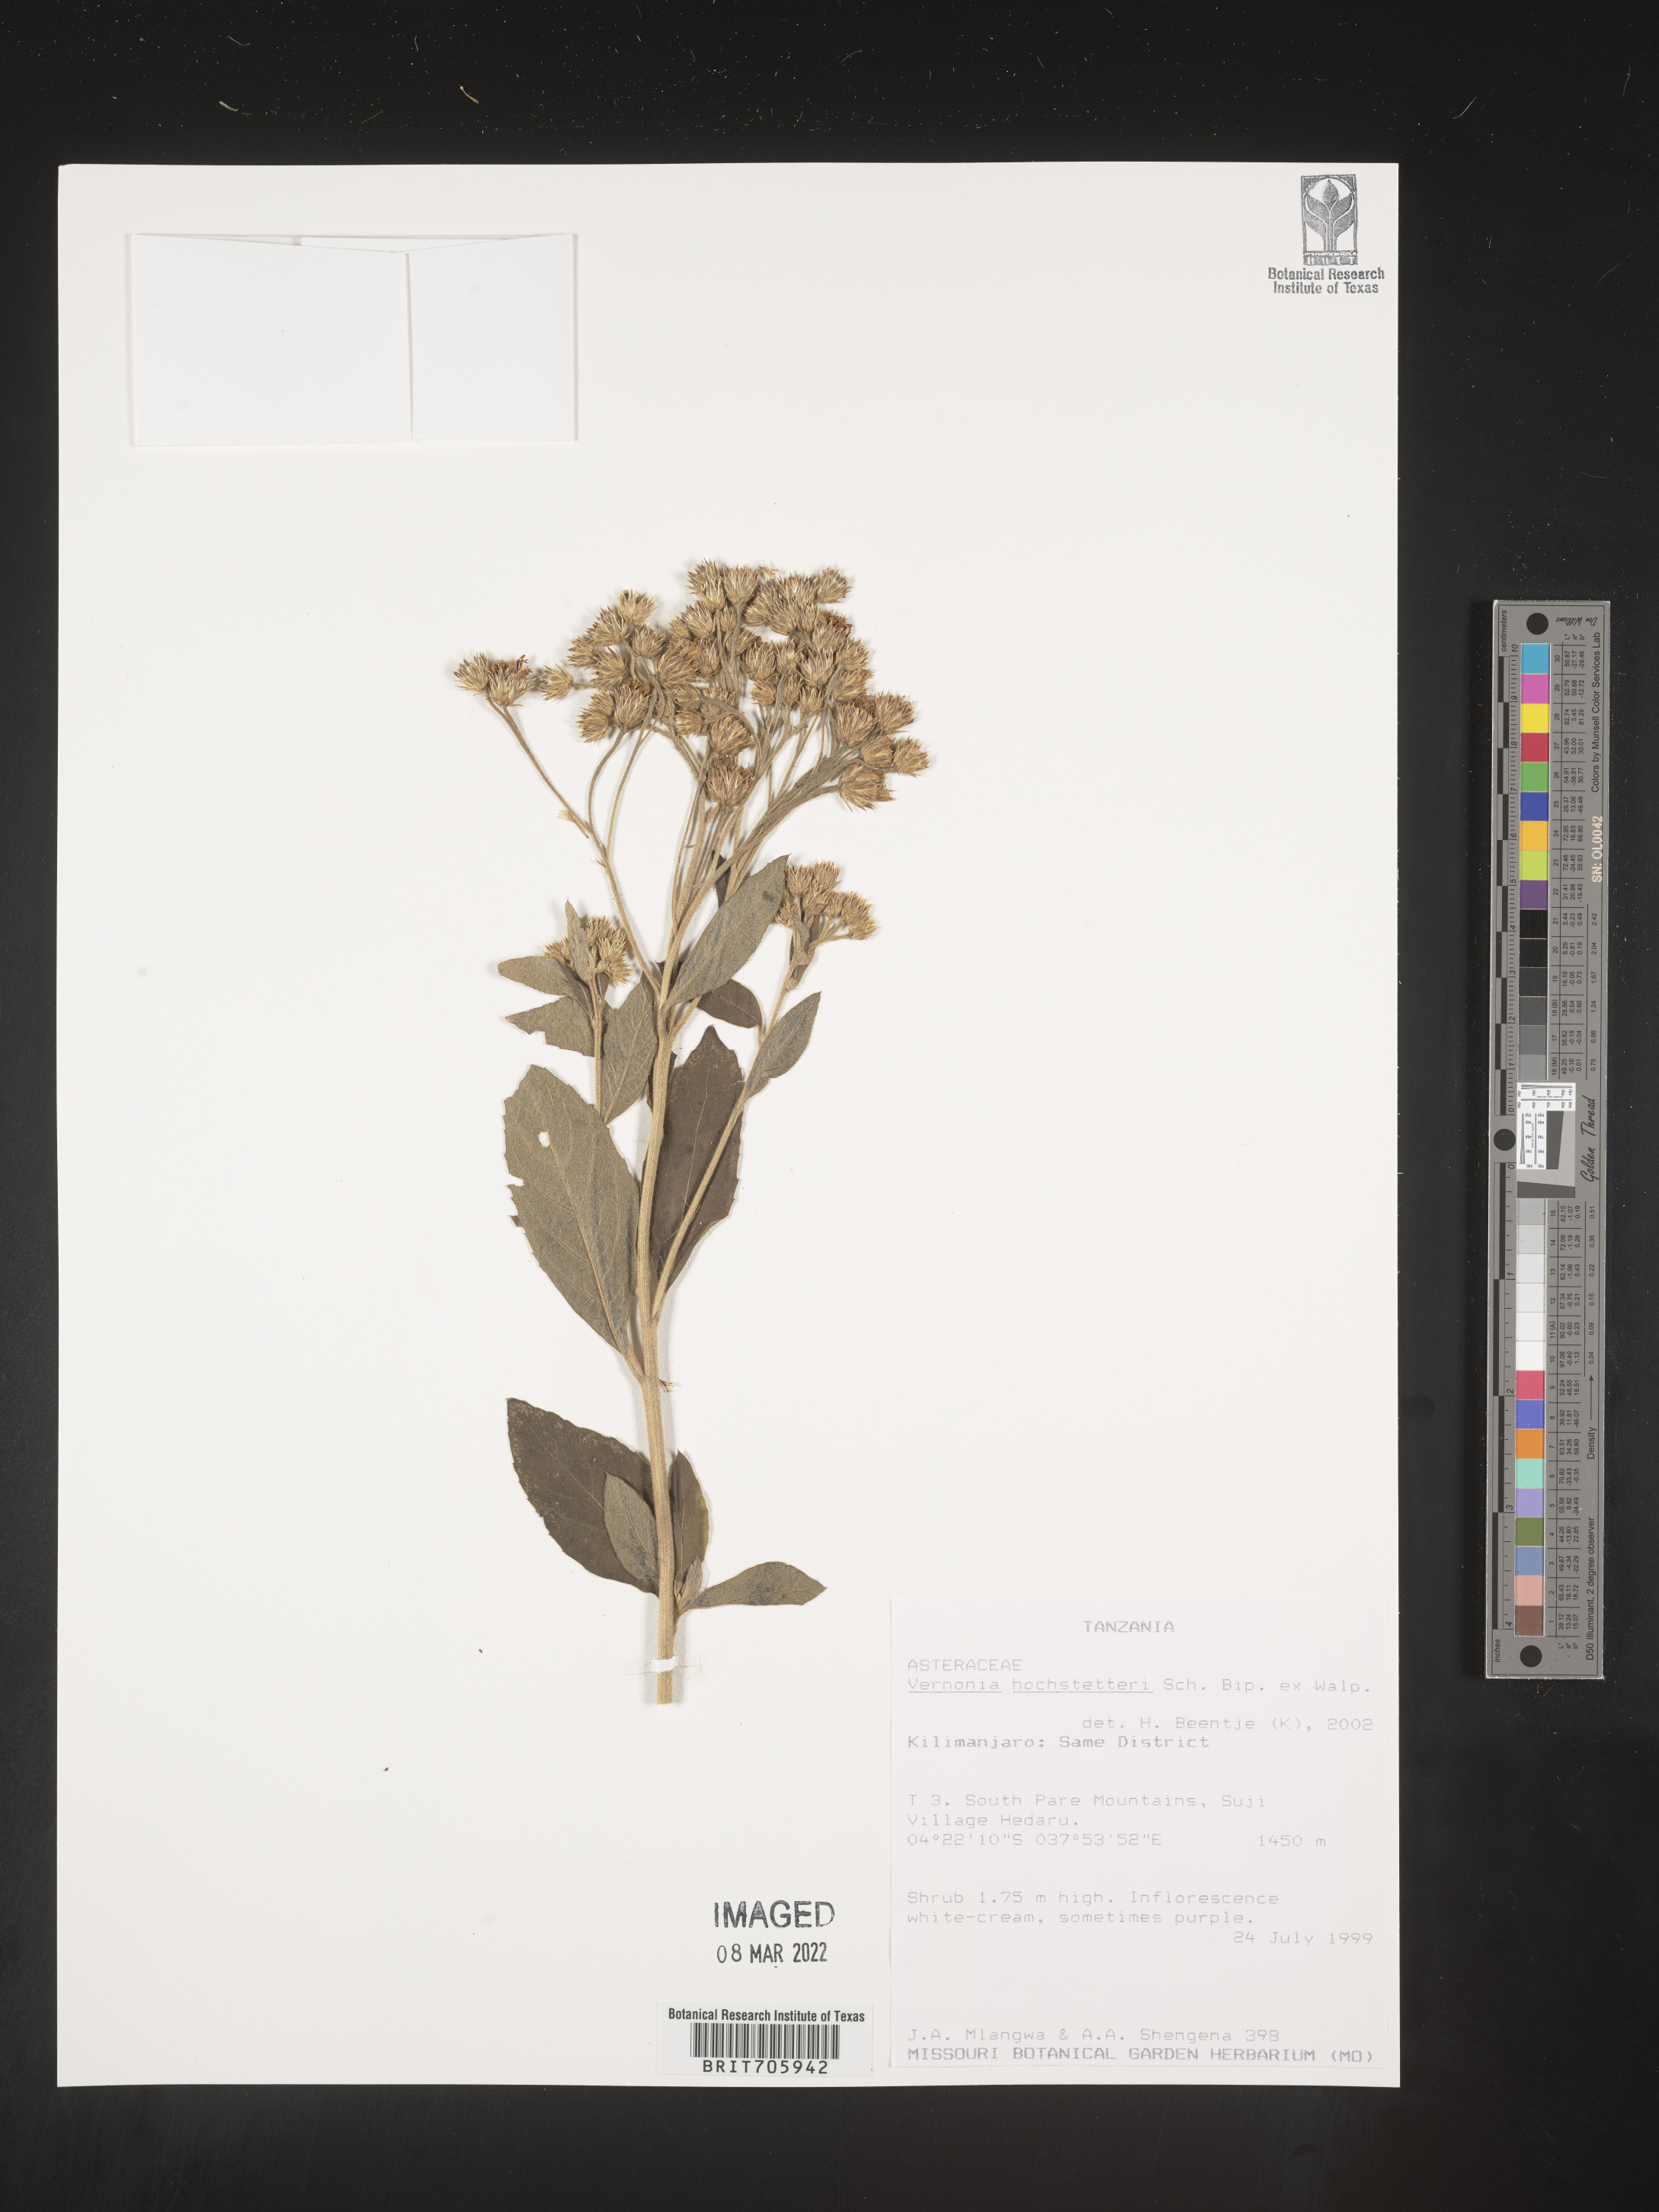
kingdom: Plantae
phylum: Tracheophyta
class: Magnoliopsida
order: Asterales
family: Asteraceae
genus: Vernonia
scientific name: Vernonia
